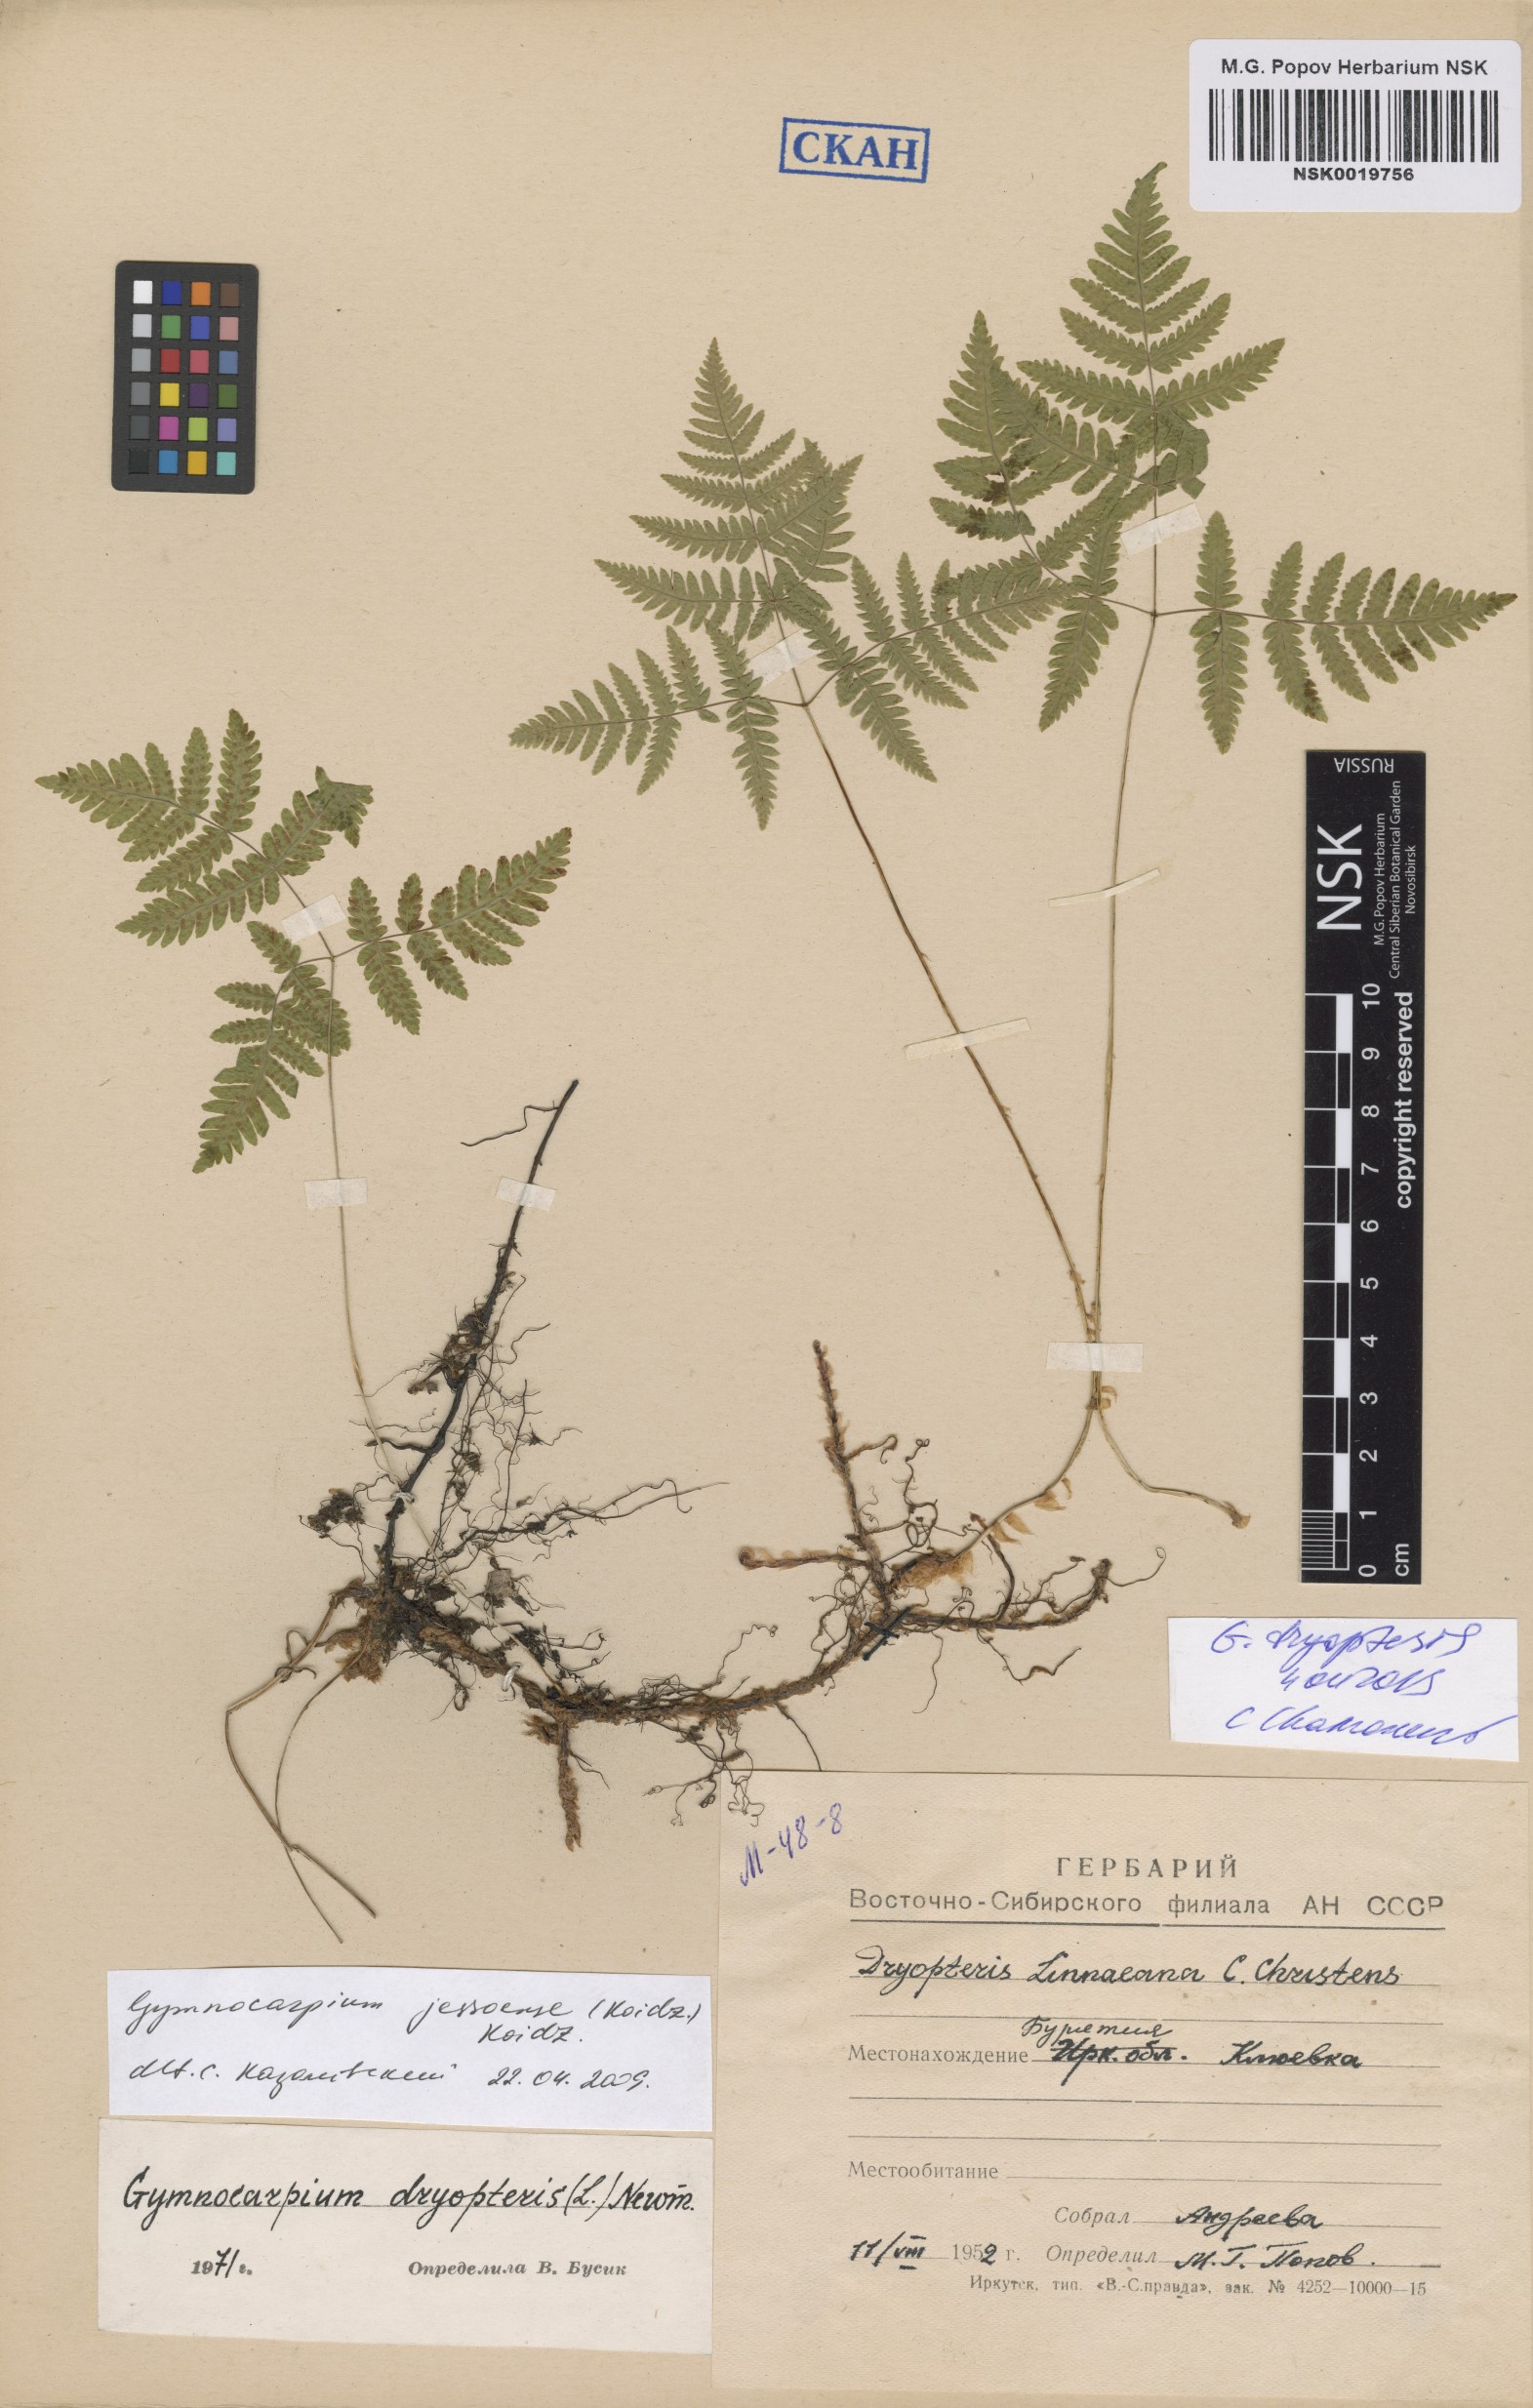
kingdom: Plantae
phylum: Tracheophyta
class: Polypodiopsida
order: Polypodiales
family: Cystopteridaceae
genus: Gymnocarpium
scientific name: Gymnocarpium dryopteris
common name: Oak fern
